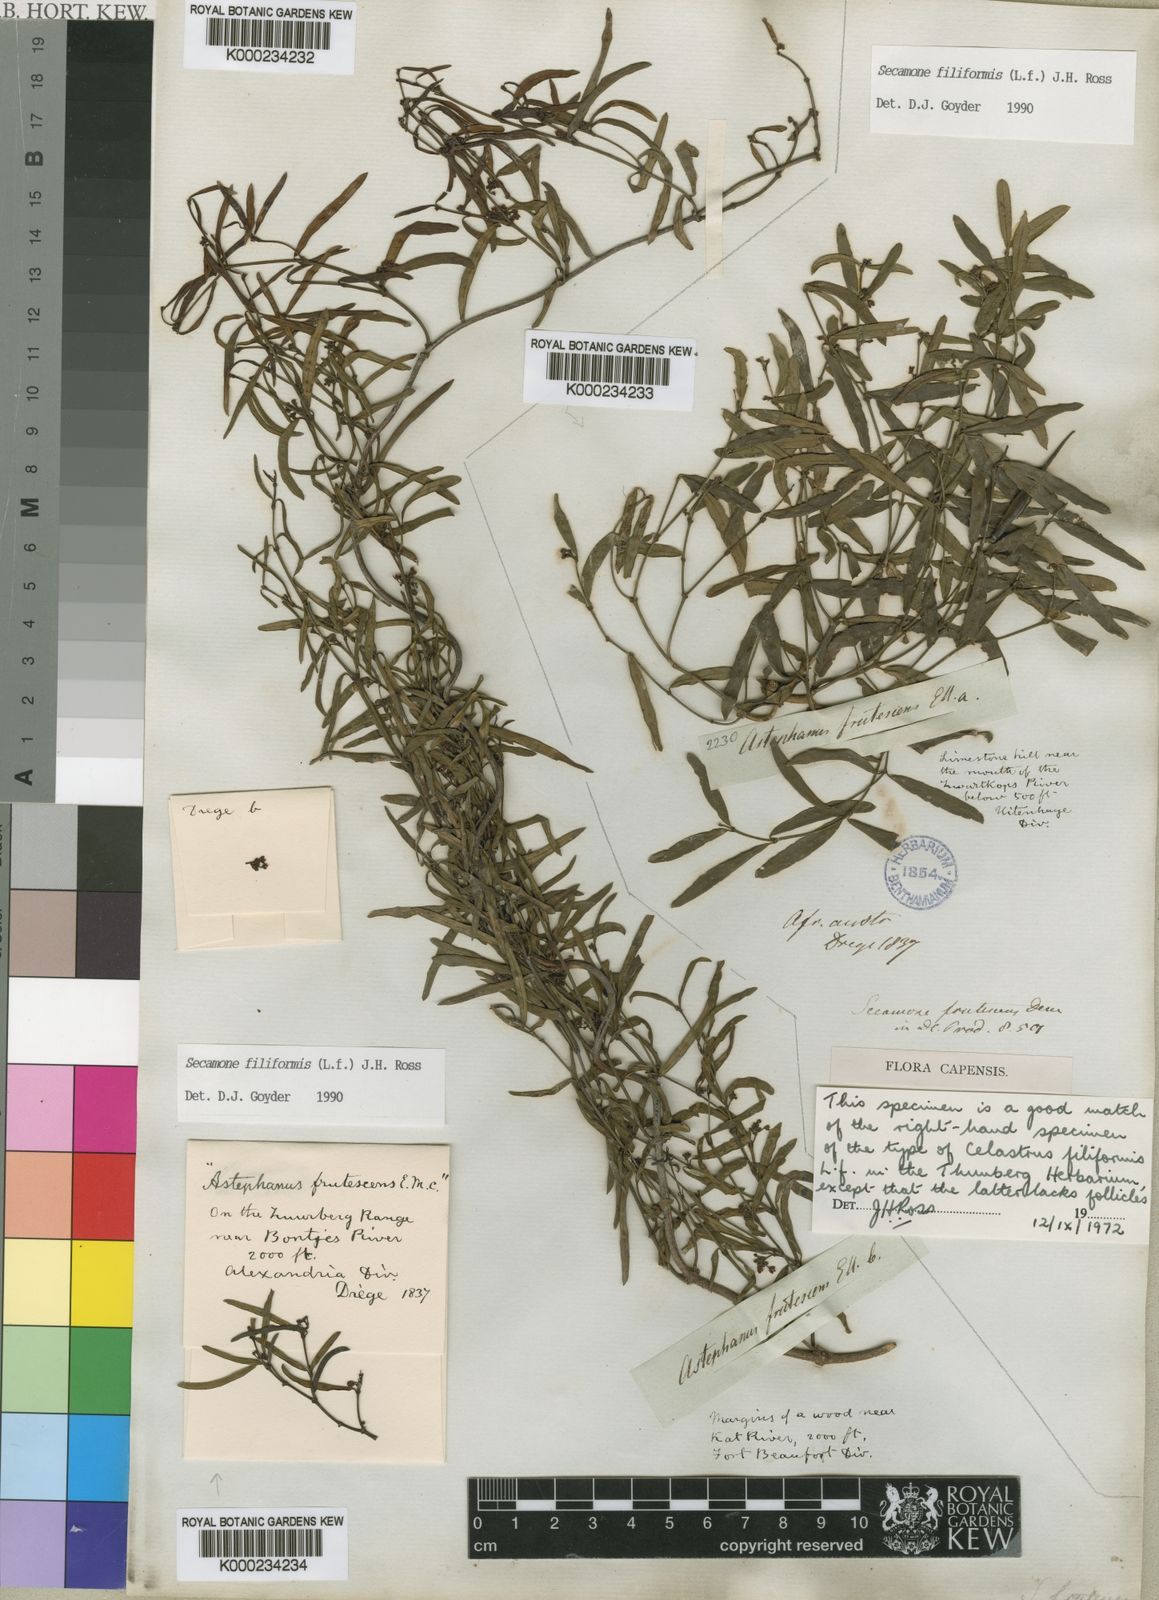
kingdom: Plantae
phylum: Tracheophyta
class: Magnoliopsida
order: Gentianales
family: Apocynaceae
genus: Secamone
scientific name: Secamone filiformis
